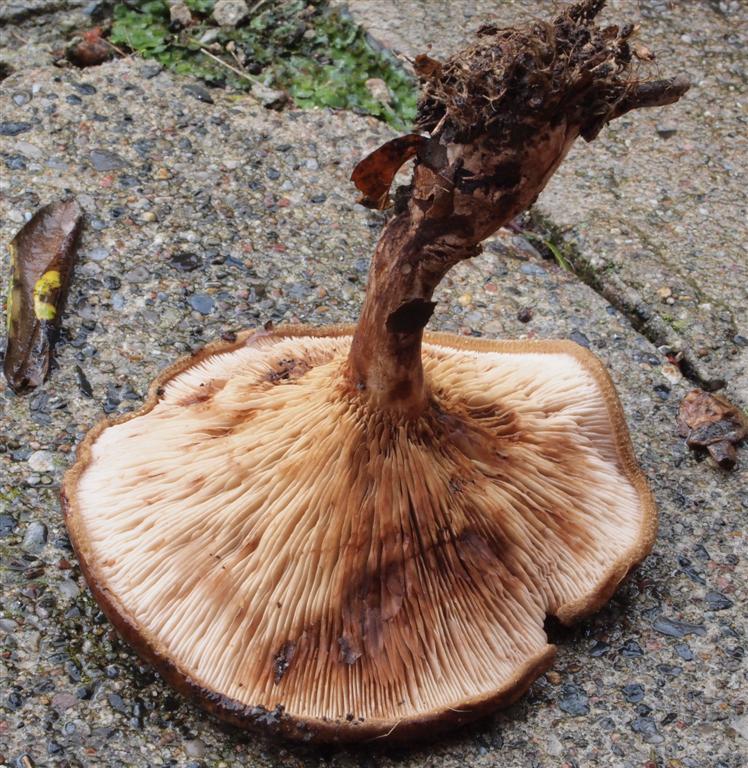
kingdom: Fungi
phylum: Basidiomycota
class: Agaricomycetes
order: Boletales
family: Paxillaceae
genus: Paxillus
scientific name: Paxillus involutus
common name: almindelig netbladhat
